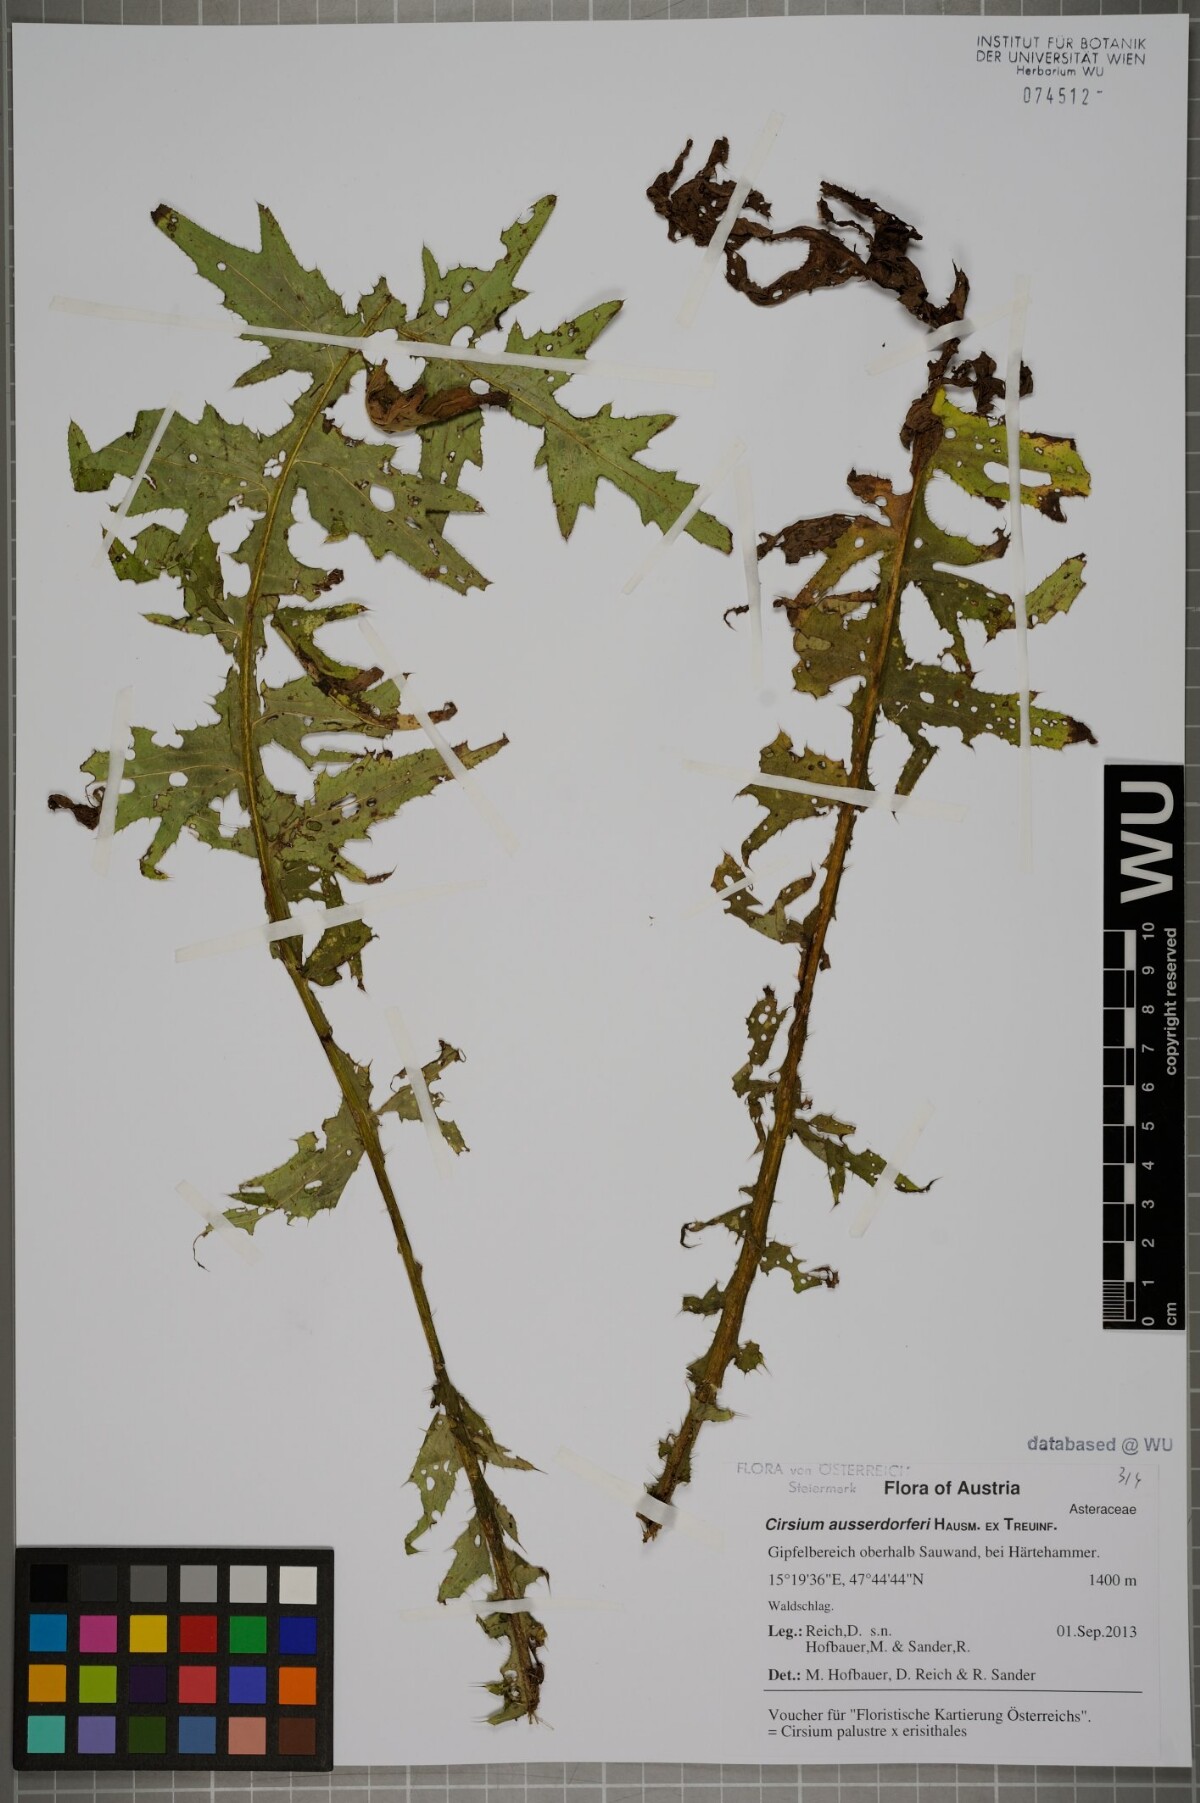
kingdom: Plantae
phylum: Tracheophyta
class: Magnoliopsida
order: Asterales
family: Asteraceae
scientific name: Asteraceae
